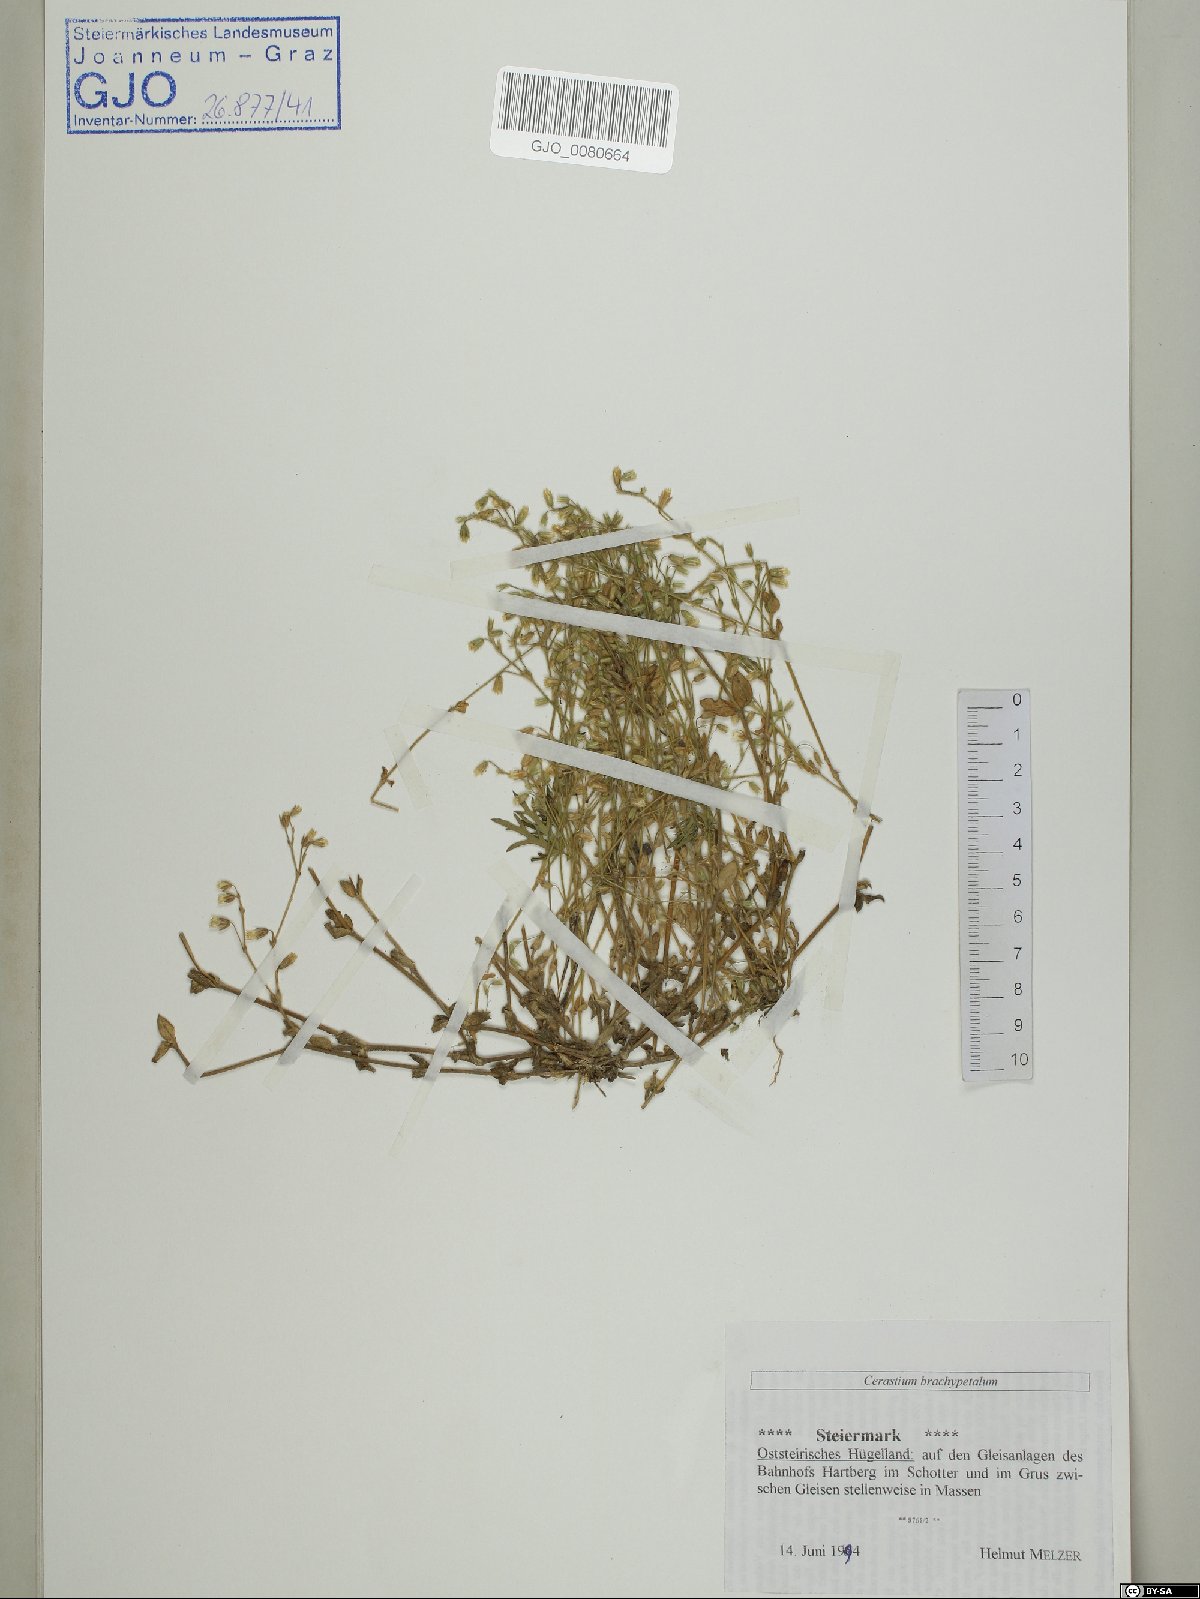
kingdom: Plantae
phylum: Tracheophyta
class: Magnoliopsida
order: Caryophyllales
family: Caryophyllaceae
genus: Cerastium
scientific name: Cerastium brachypetalum
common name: Grey mouse-ear
